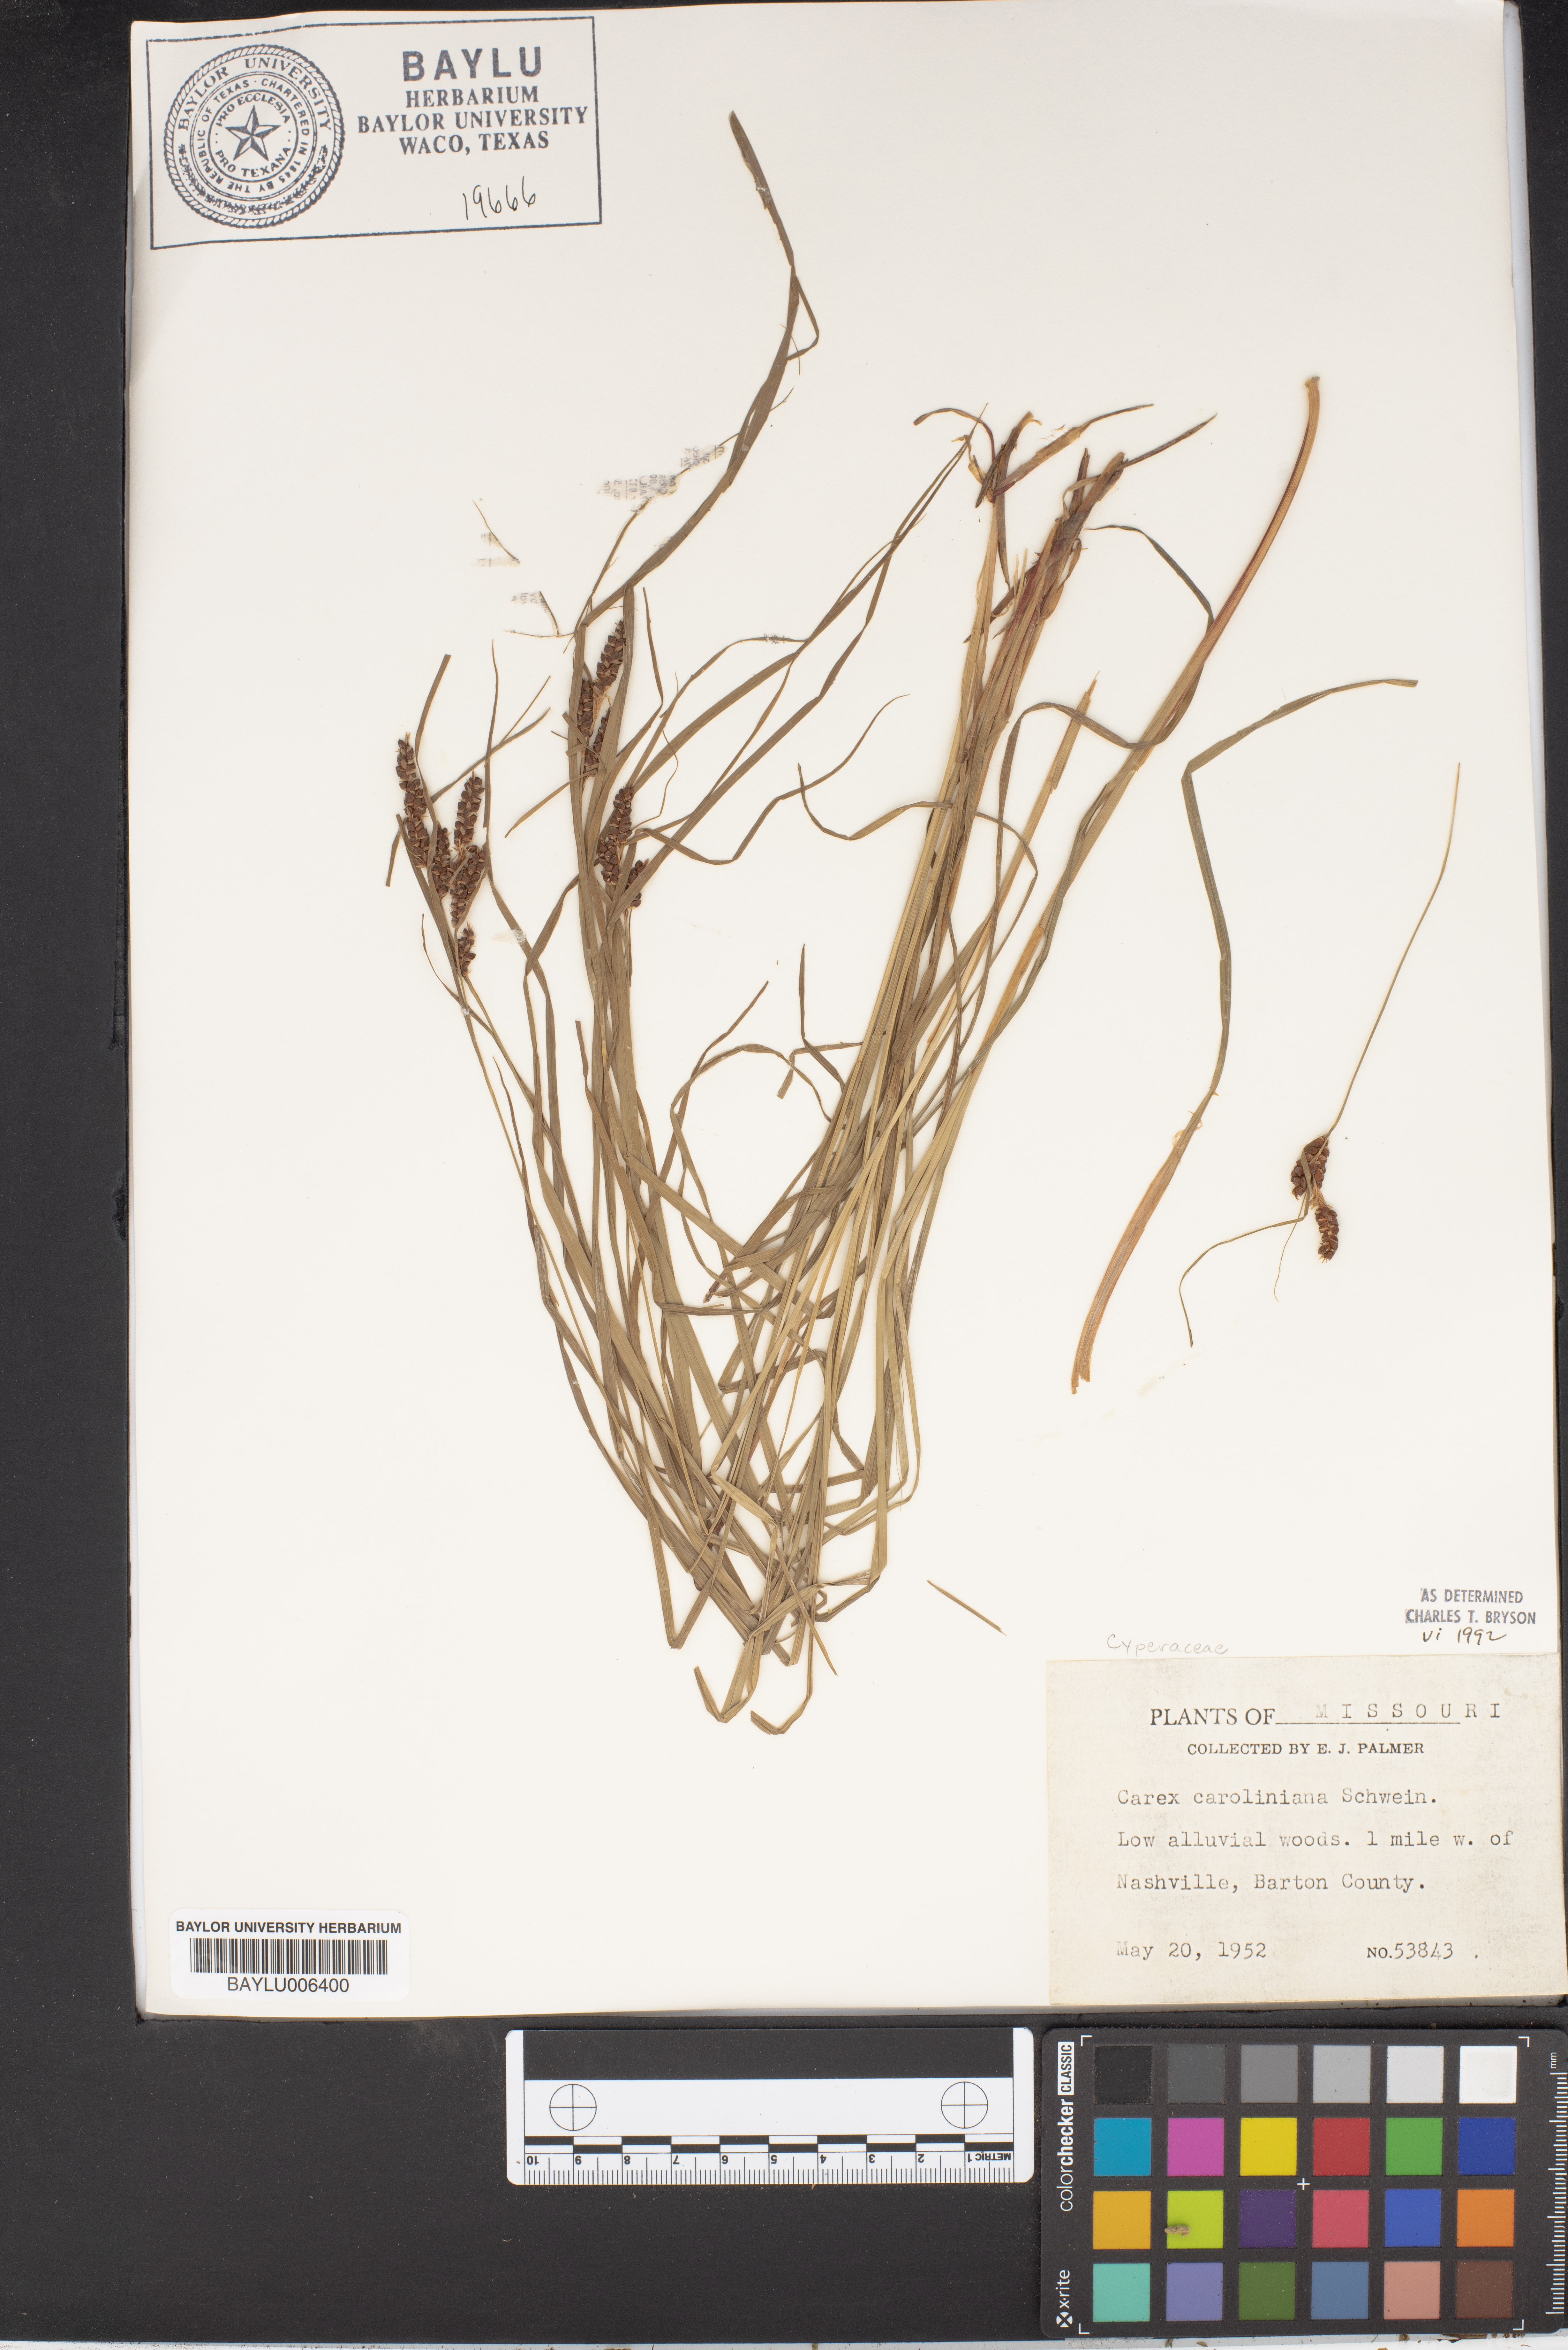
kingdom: Plantae
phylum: Tracheophyta
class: Liliopsida
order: Poales
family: Cyperaceae
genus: Carex
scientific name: Carex caroliniana
